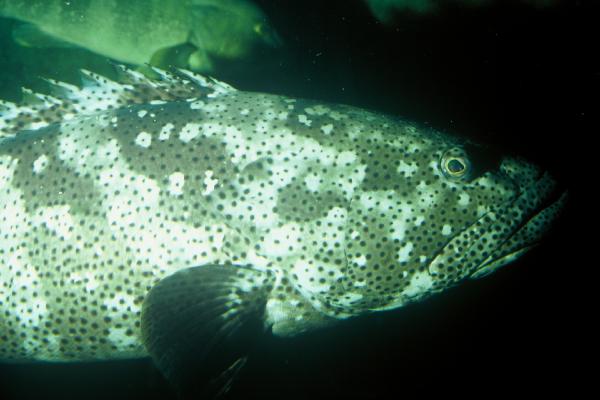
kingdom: Animalia
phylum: Chordata
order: Perciformes
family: Serranidae
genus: Epinephelus
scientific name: Epinephelus malabaricus
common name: Malabar grouper
